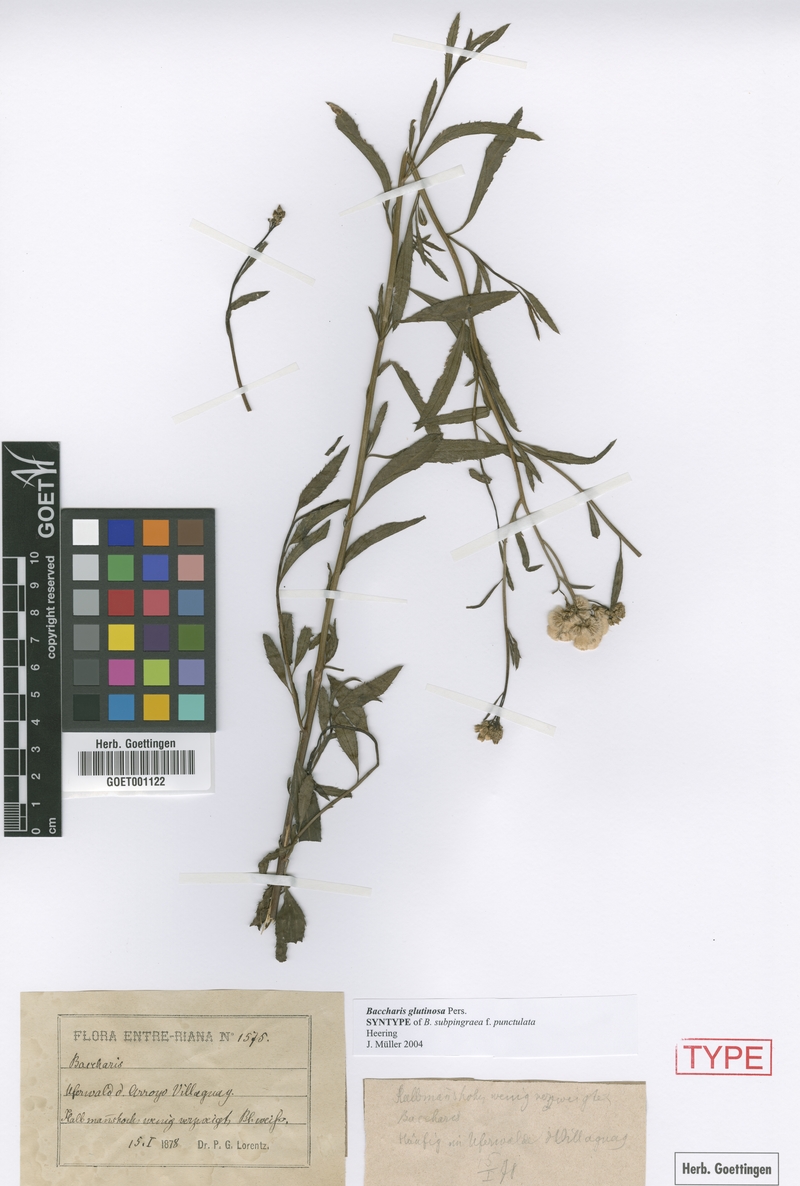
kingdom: Plantae
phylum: Tracheophyta
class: Magnoliopsida
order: Asterales
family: Asteraceae
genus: Baccharis
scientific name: Baccharis glutinosa
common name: Saltmarsh baccharis
